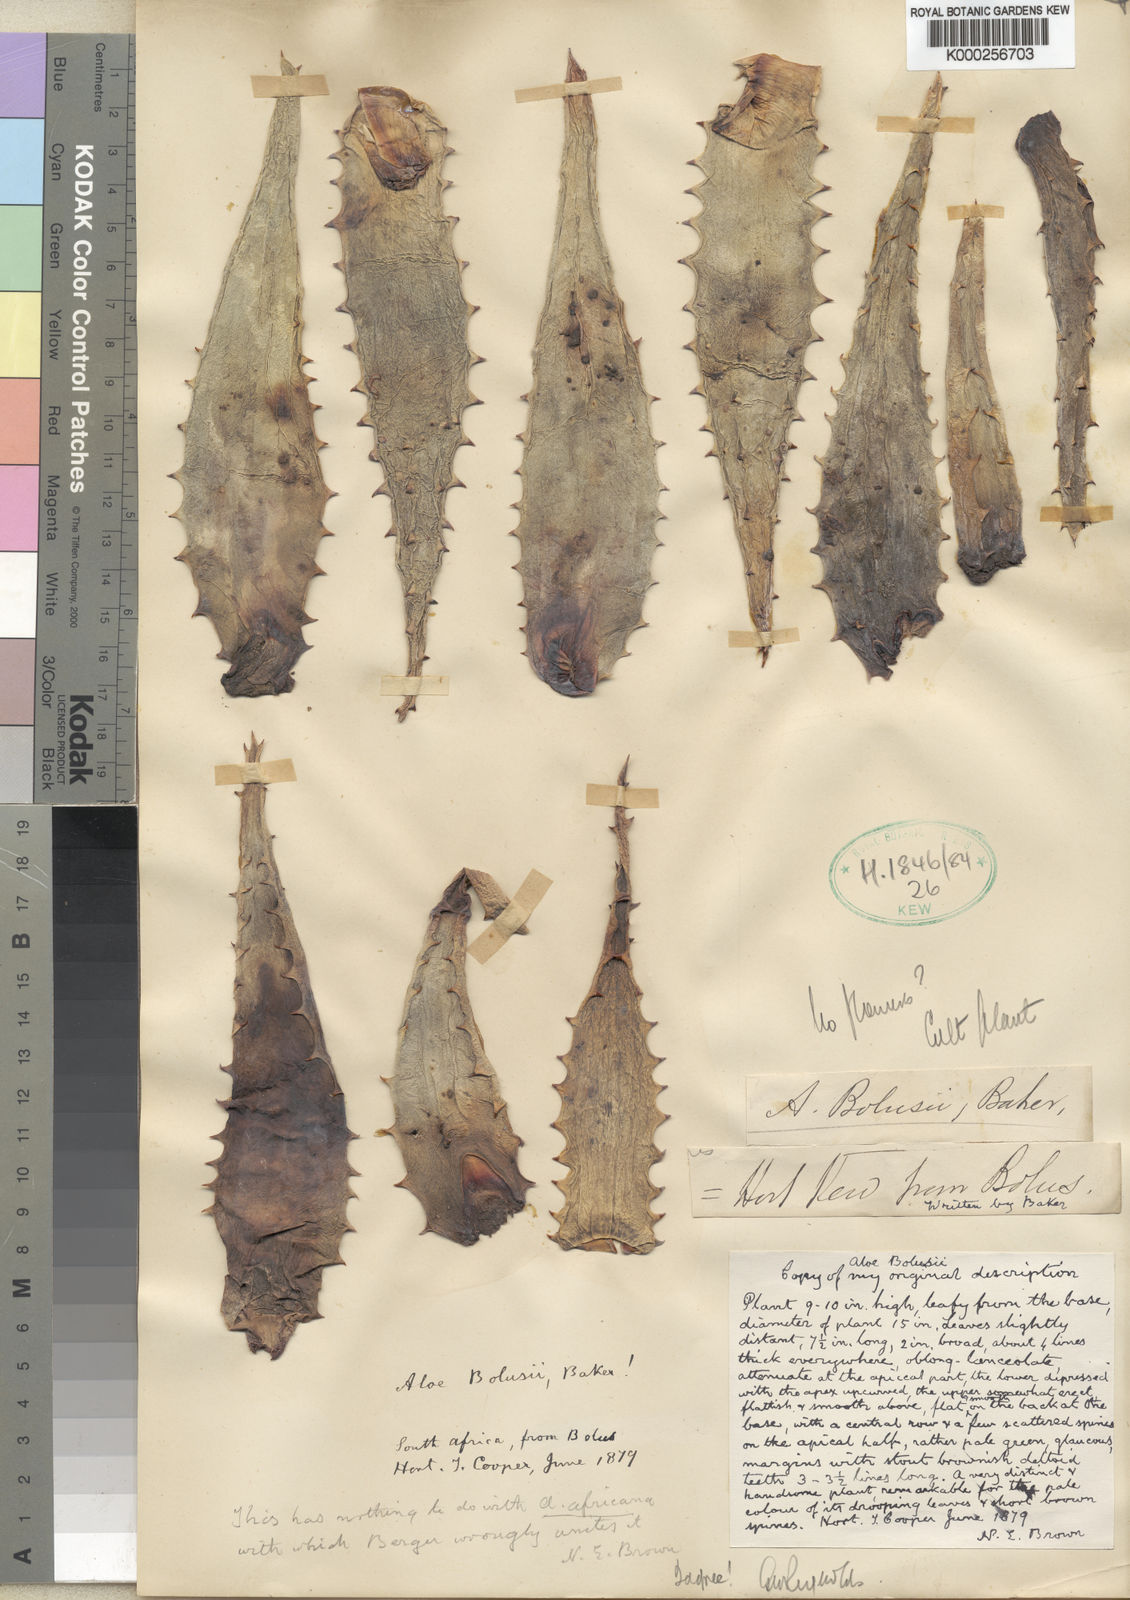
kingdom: Plantae
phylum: Tracheophyta
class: Liliopsida
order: Asparagales
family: Asphodelaceae
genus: Aloe
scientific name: Aloe ferox
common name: Bitter aloe
